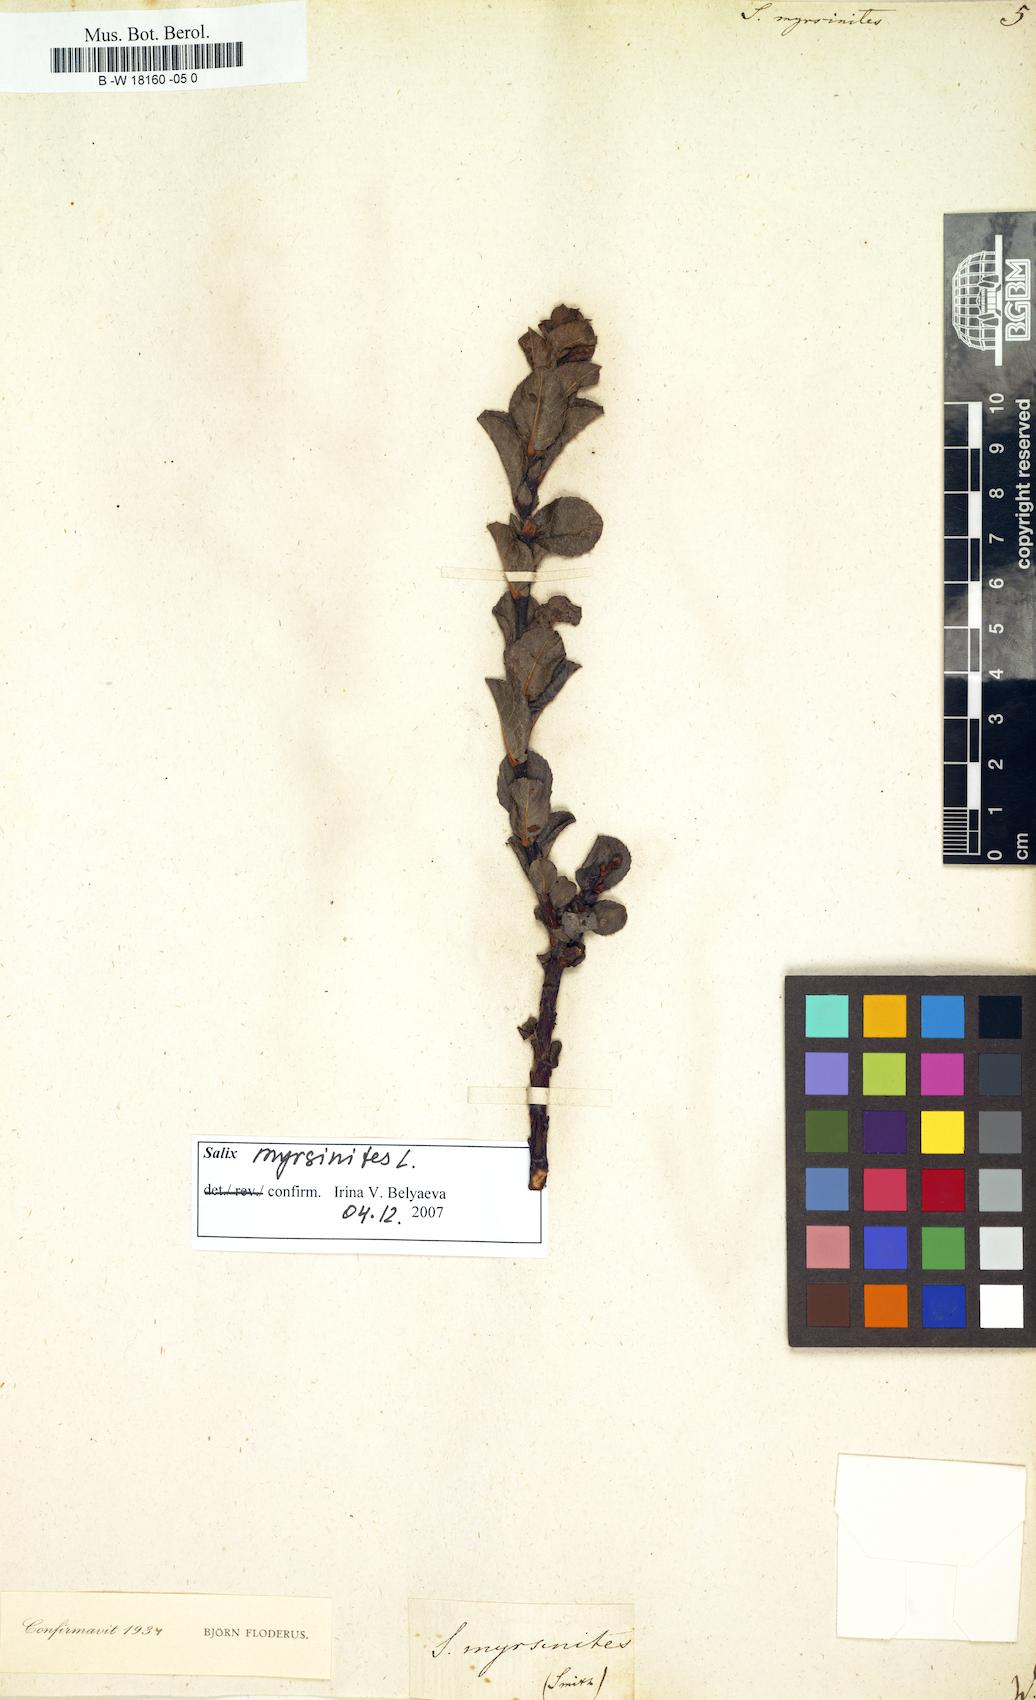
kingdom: Plantae
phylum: Tracheophyta
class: Magnoliopsida
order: Malpighiales
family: Salicaceae
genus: Salix
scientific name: Salix myrsinites
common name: Myrtle willow
